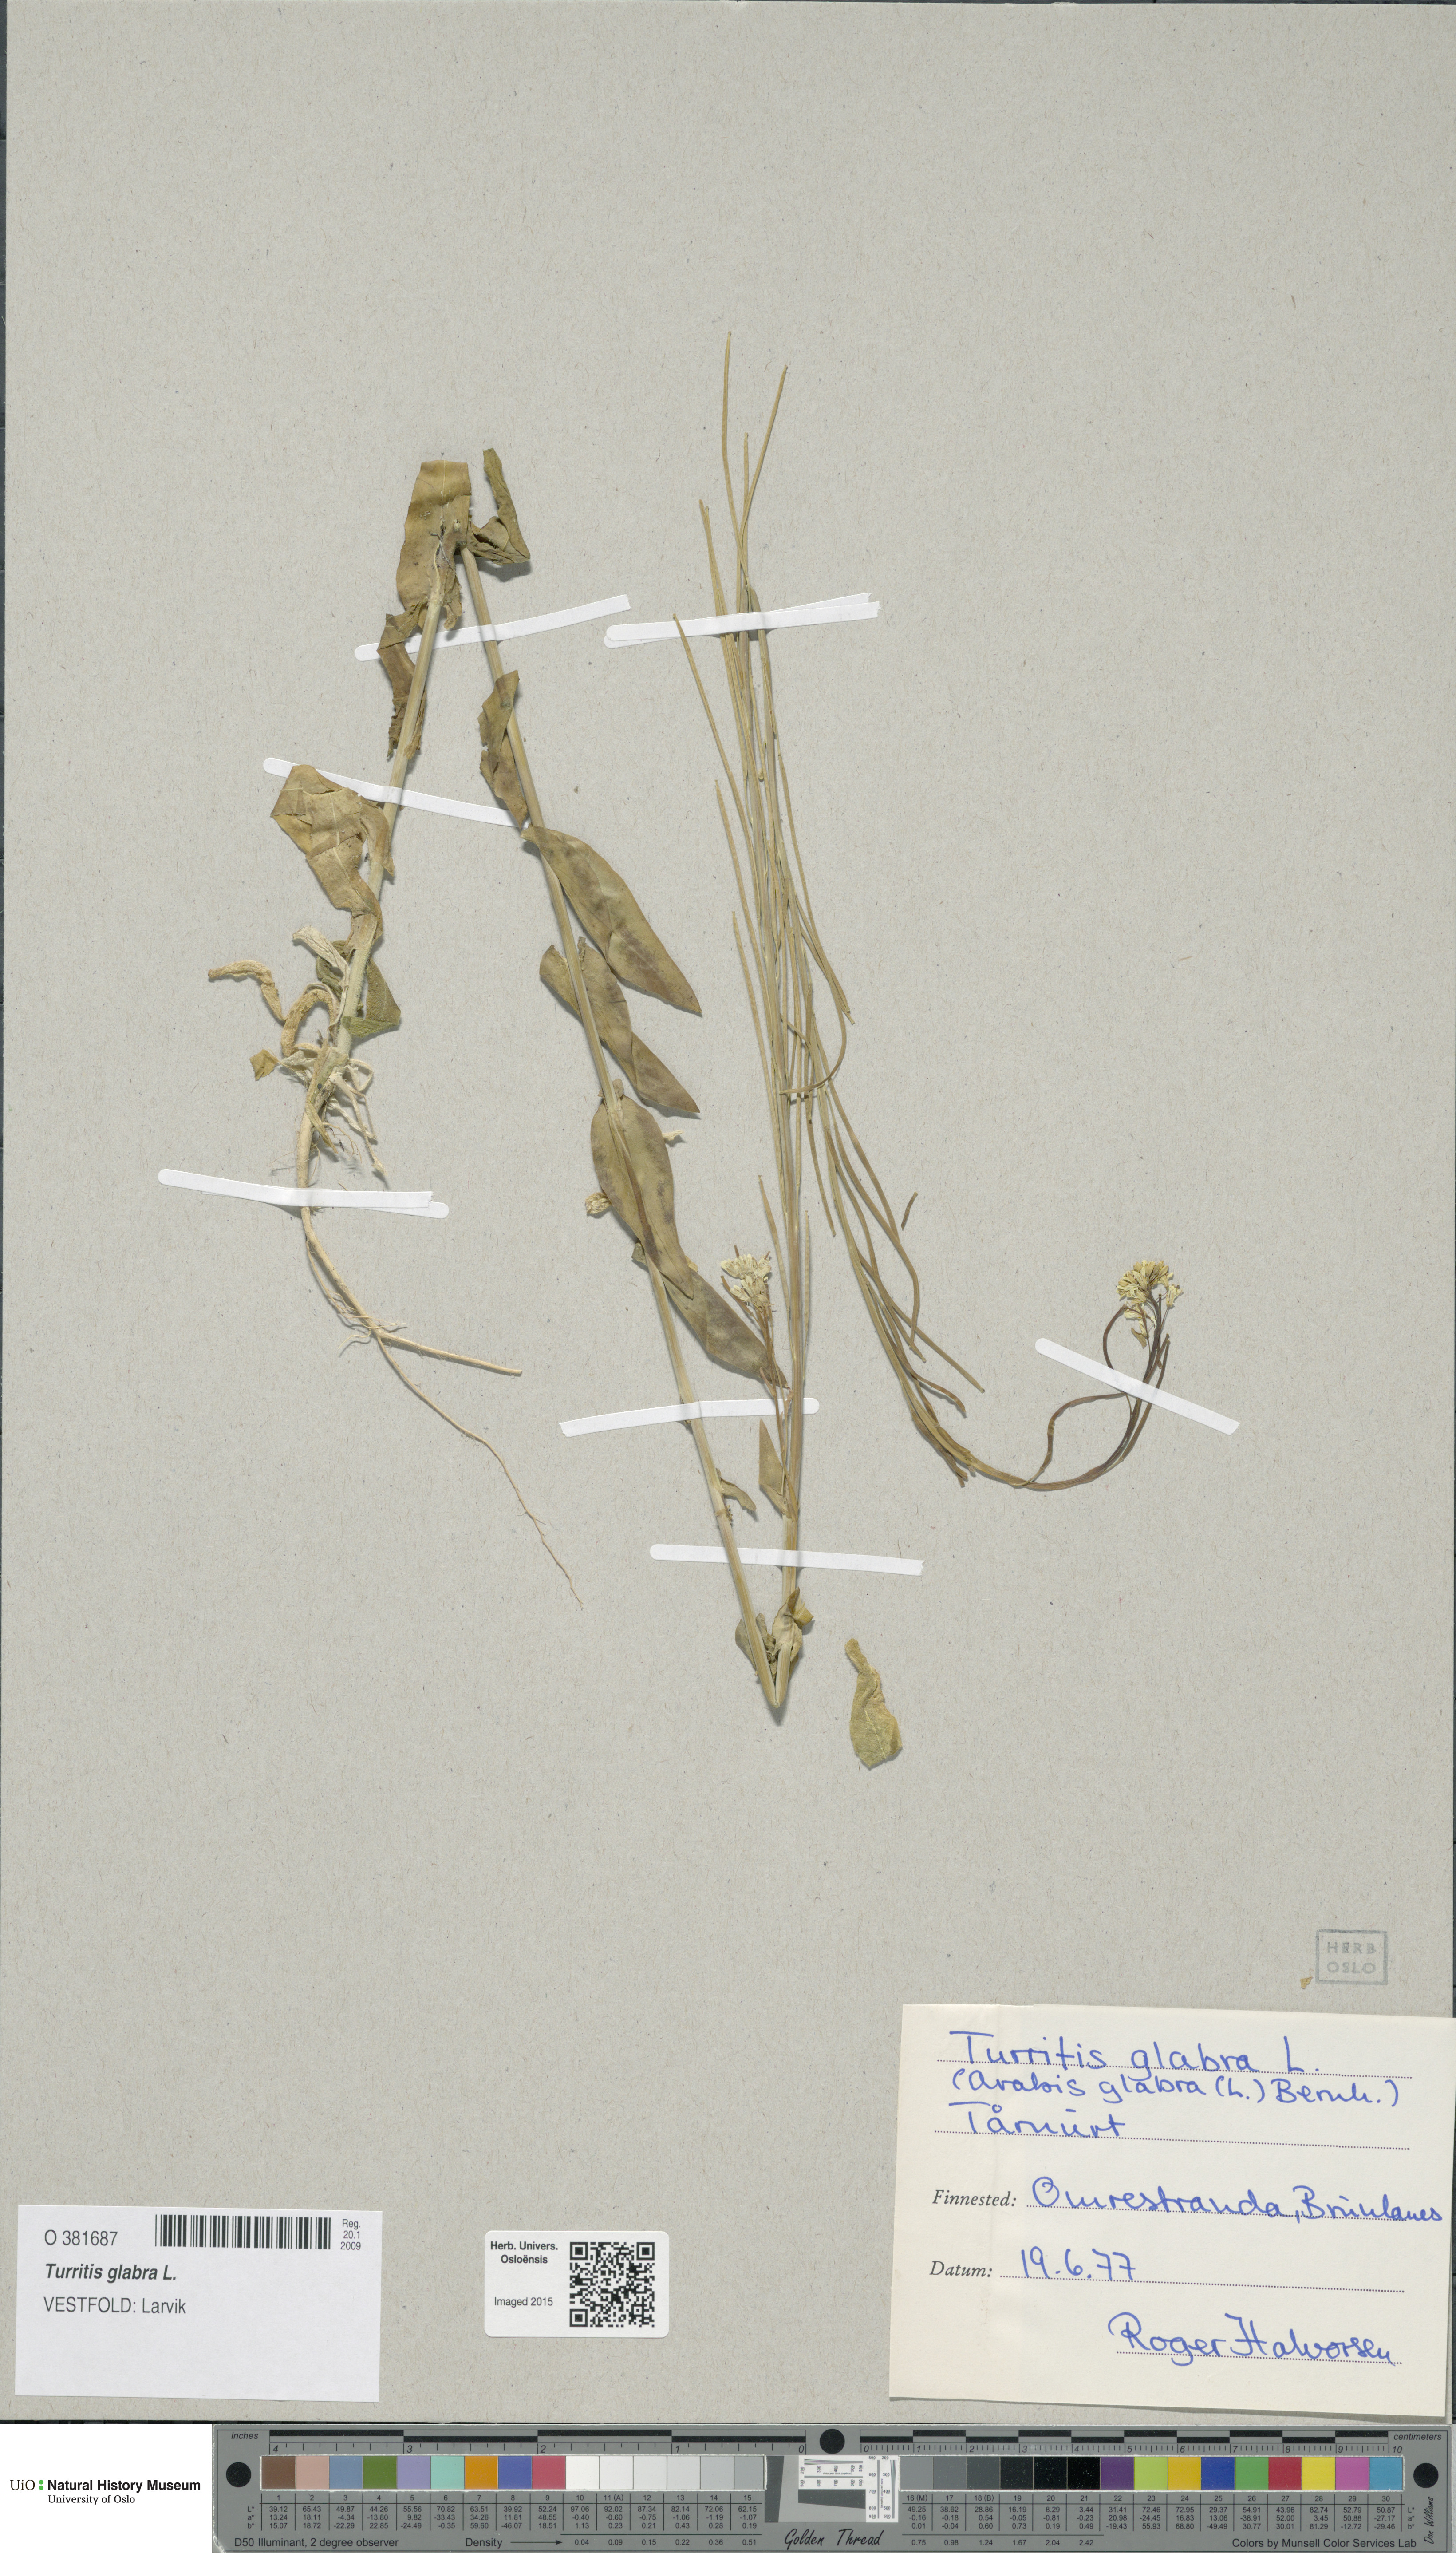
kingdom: Plantae
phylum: Tracheophyta
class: Magnoliopsida
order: Brassicales
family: Brassicaceae
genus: Turritis
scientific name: Turritis glabra
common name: Tower rockcress
